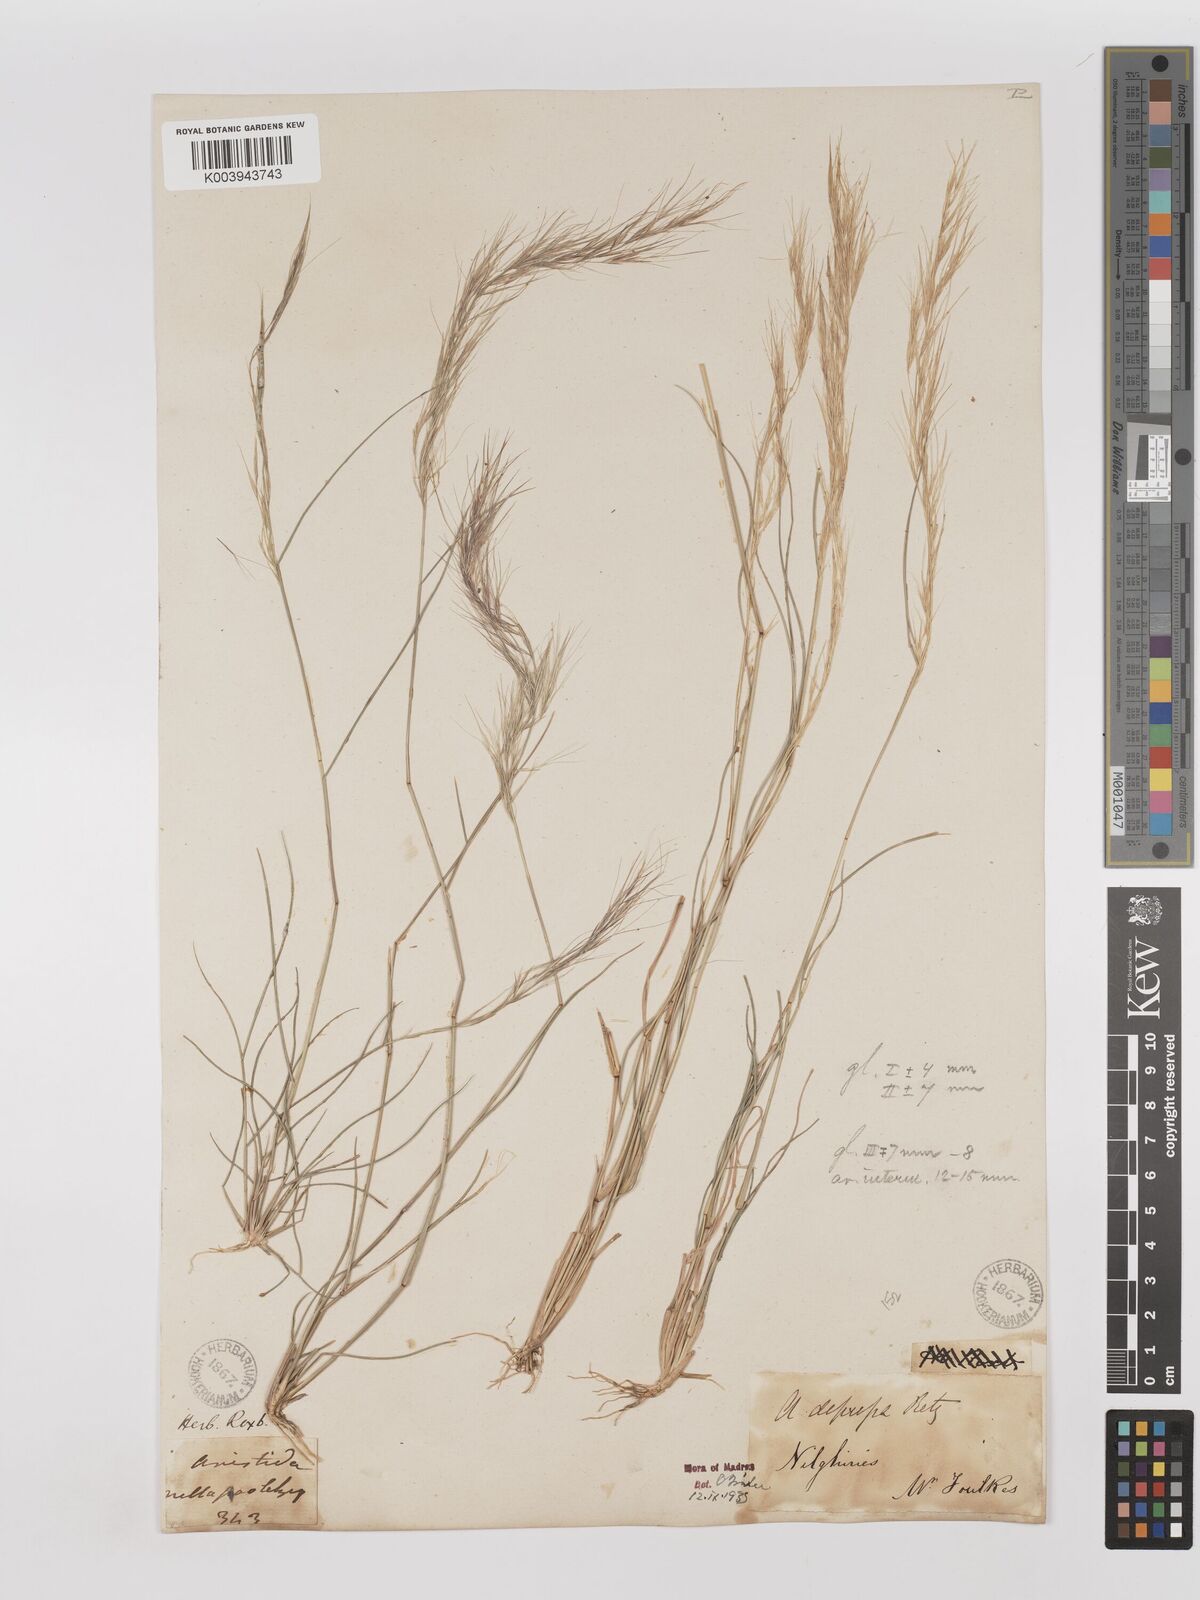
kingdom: Plantae
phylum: Tracheophyta
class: Liliopsida
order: Poales
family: Poaceae
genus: Aristida
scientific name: Aristida adscensionis
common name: Sixweeks threeawn
